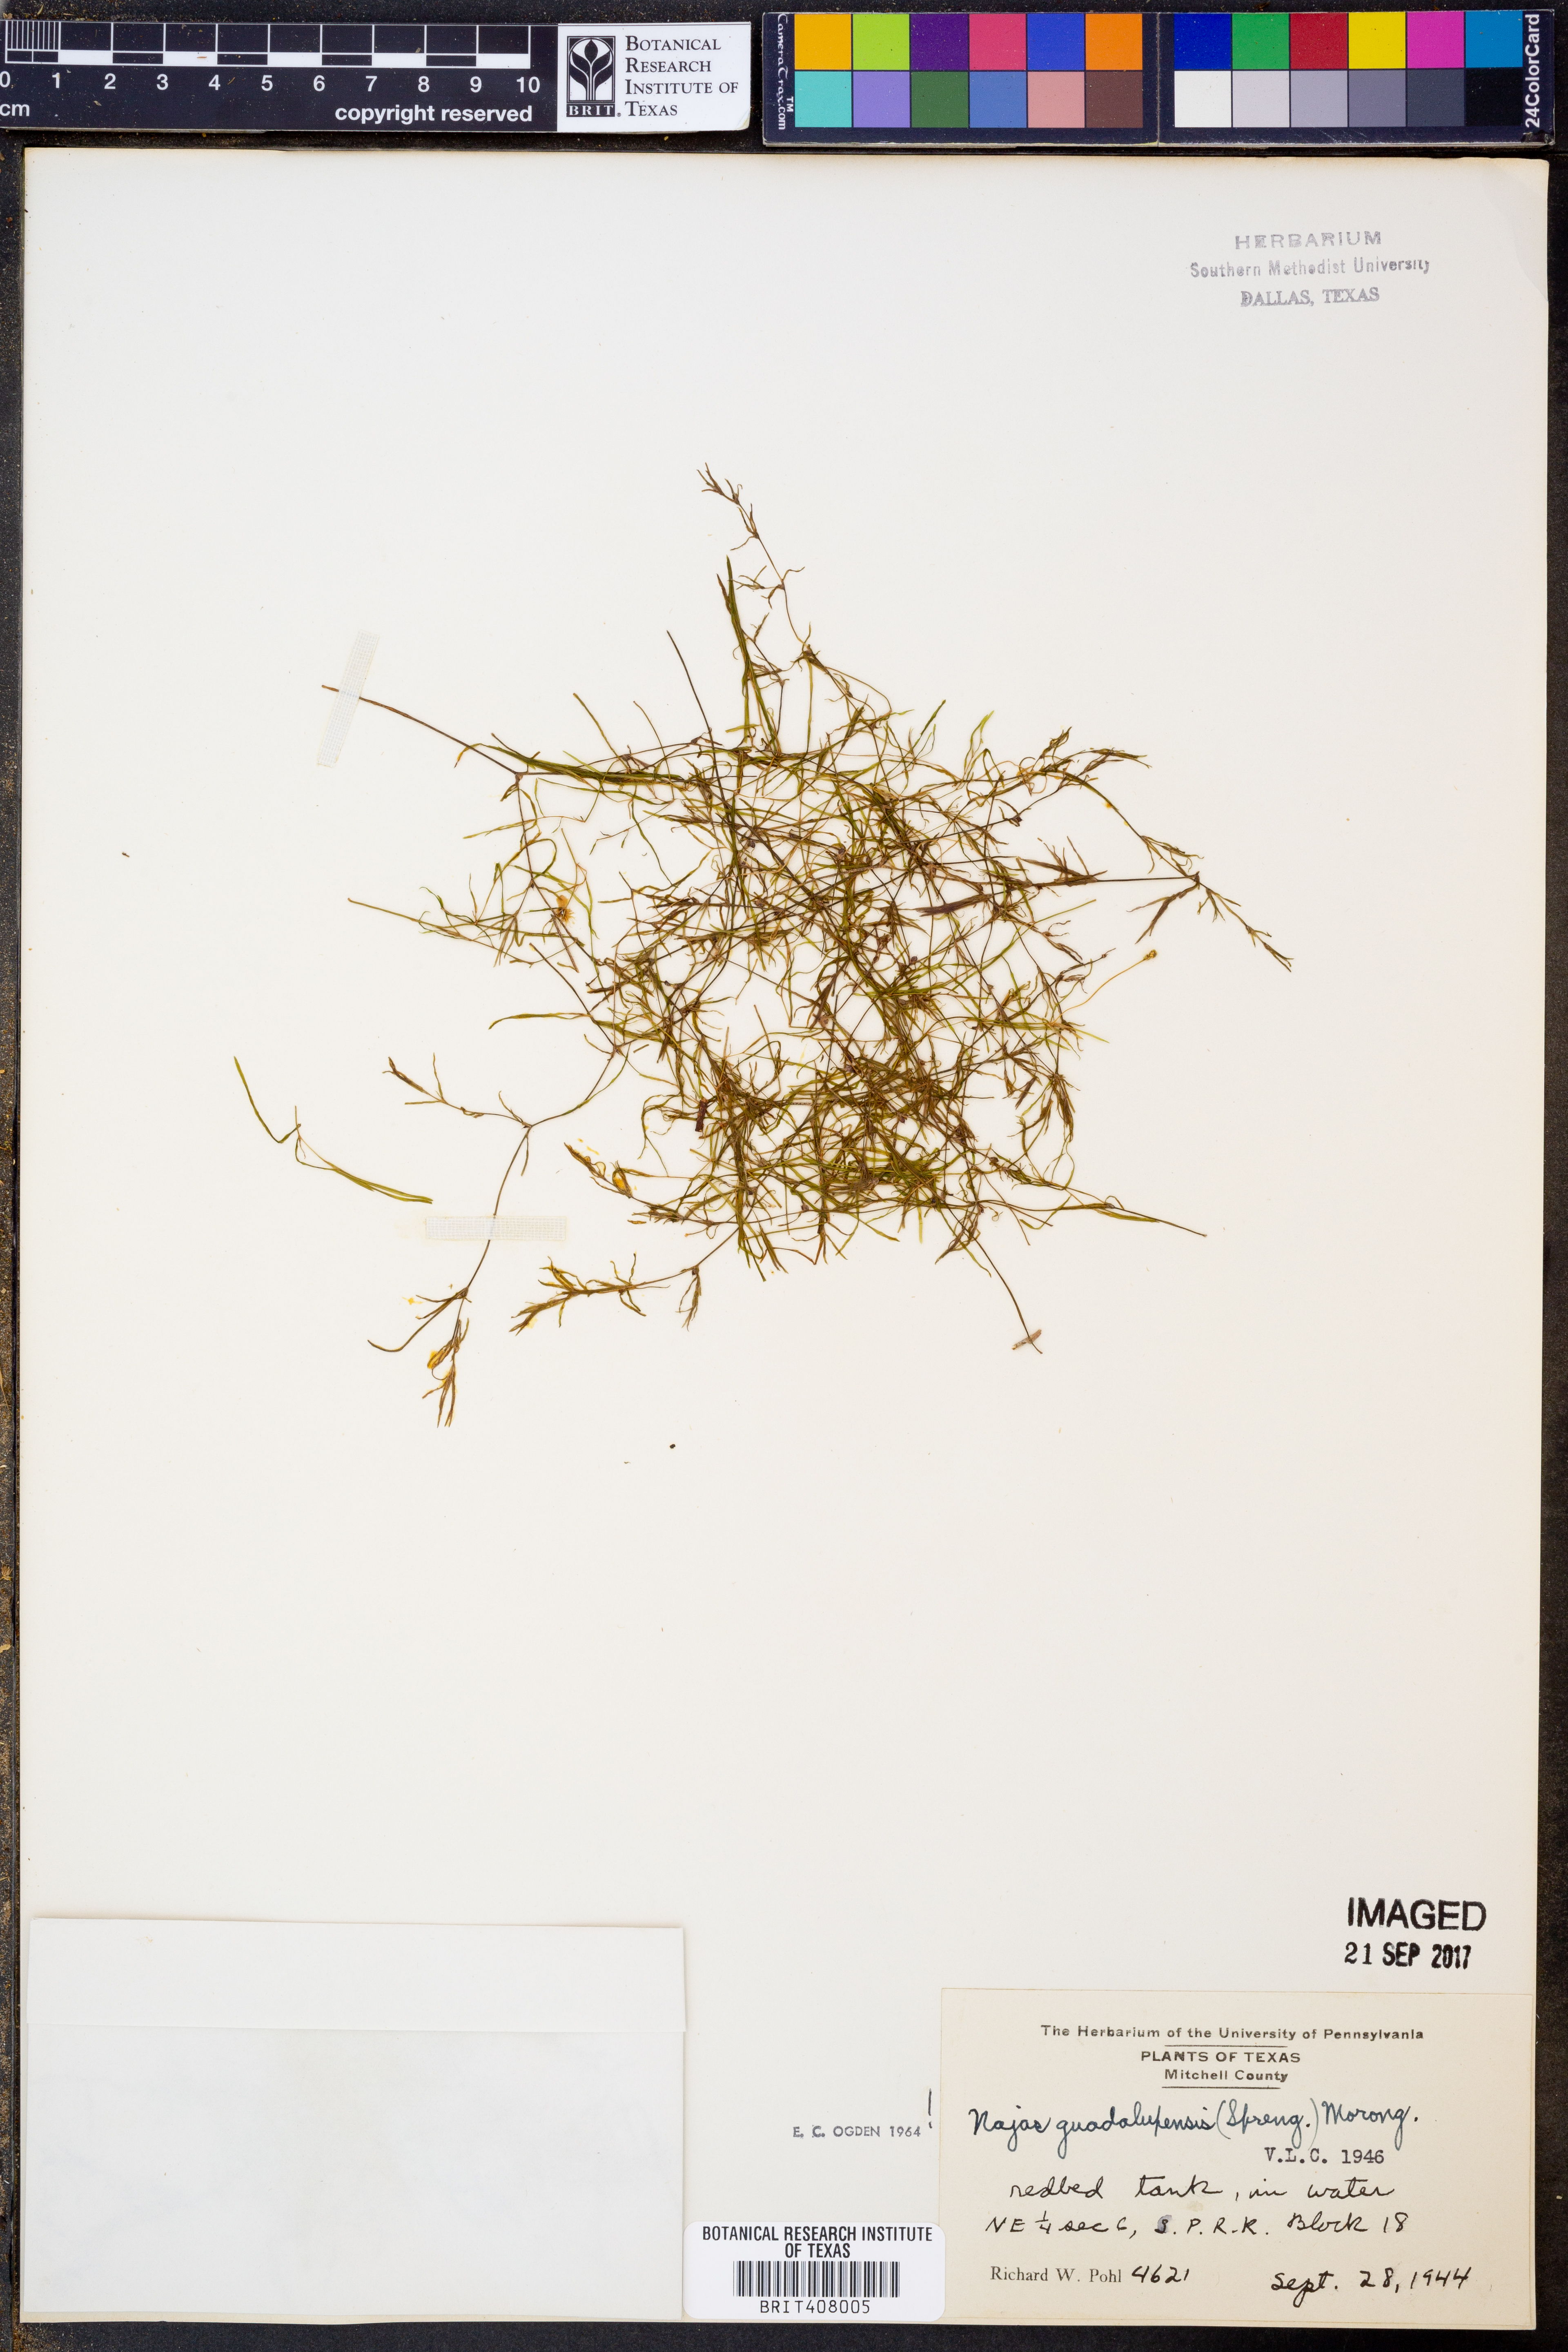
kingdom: Plantae
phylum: Tracheophyta
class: Liliopsida
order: Alismatales
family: Hydrocharitaceae
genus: Najas
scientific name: Najas guadalupensis
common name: Southern naiad
